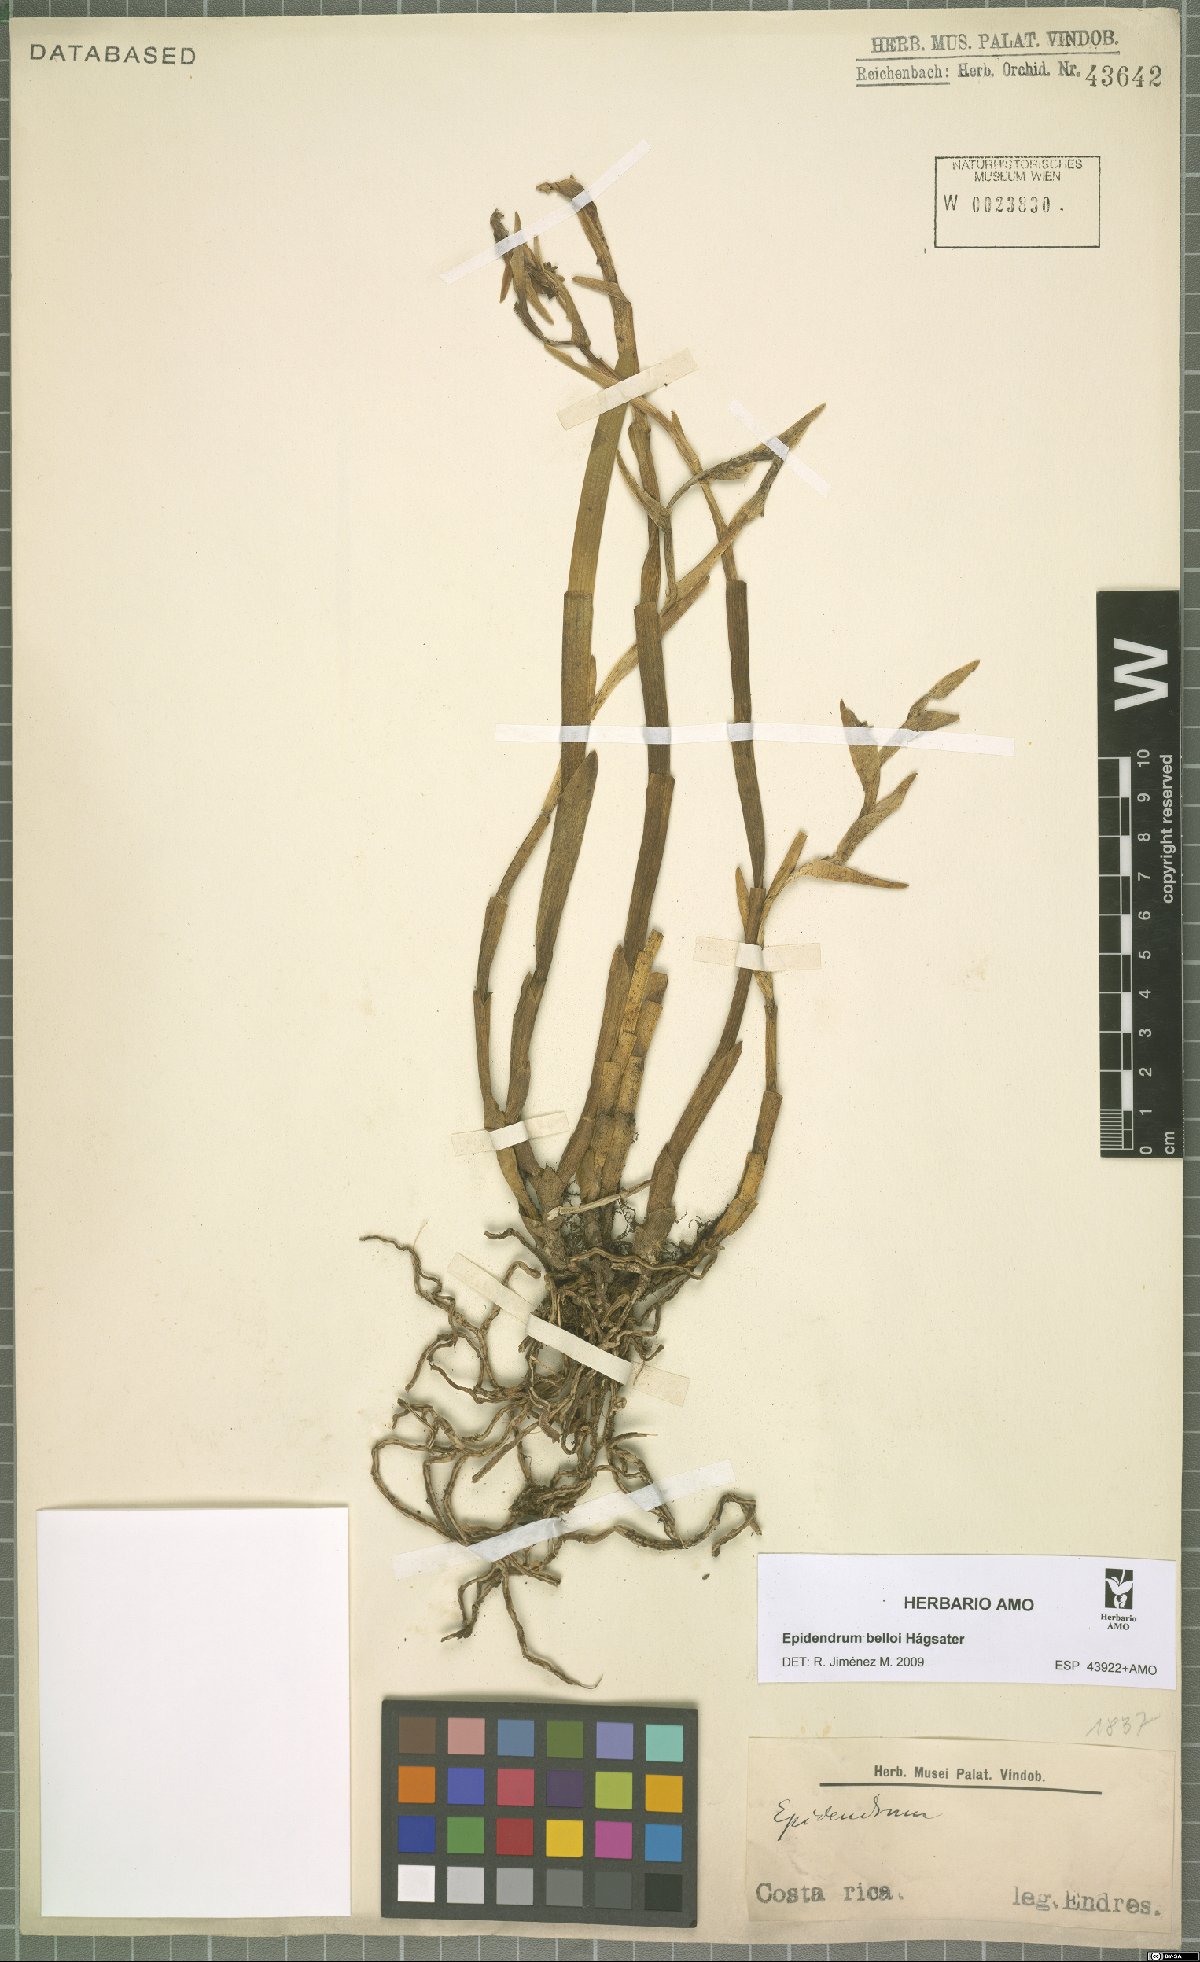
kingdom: Plantae
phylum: Tracheophyta
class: Liliopsida
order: Asparagales
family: Orchidaceae
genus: Epidendrum
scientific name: Epidendrum belloi
